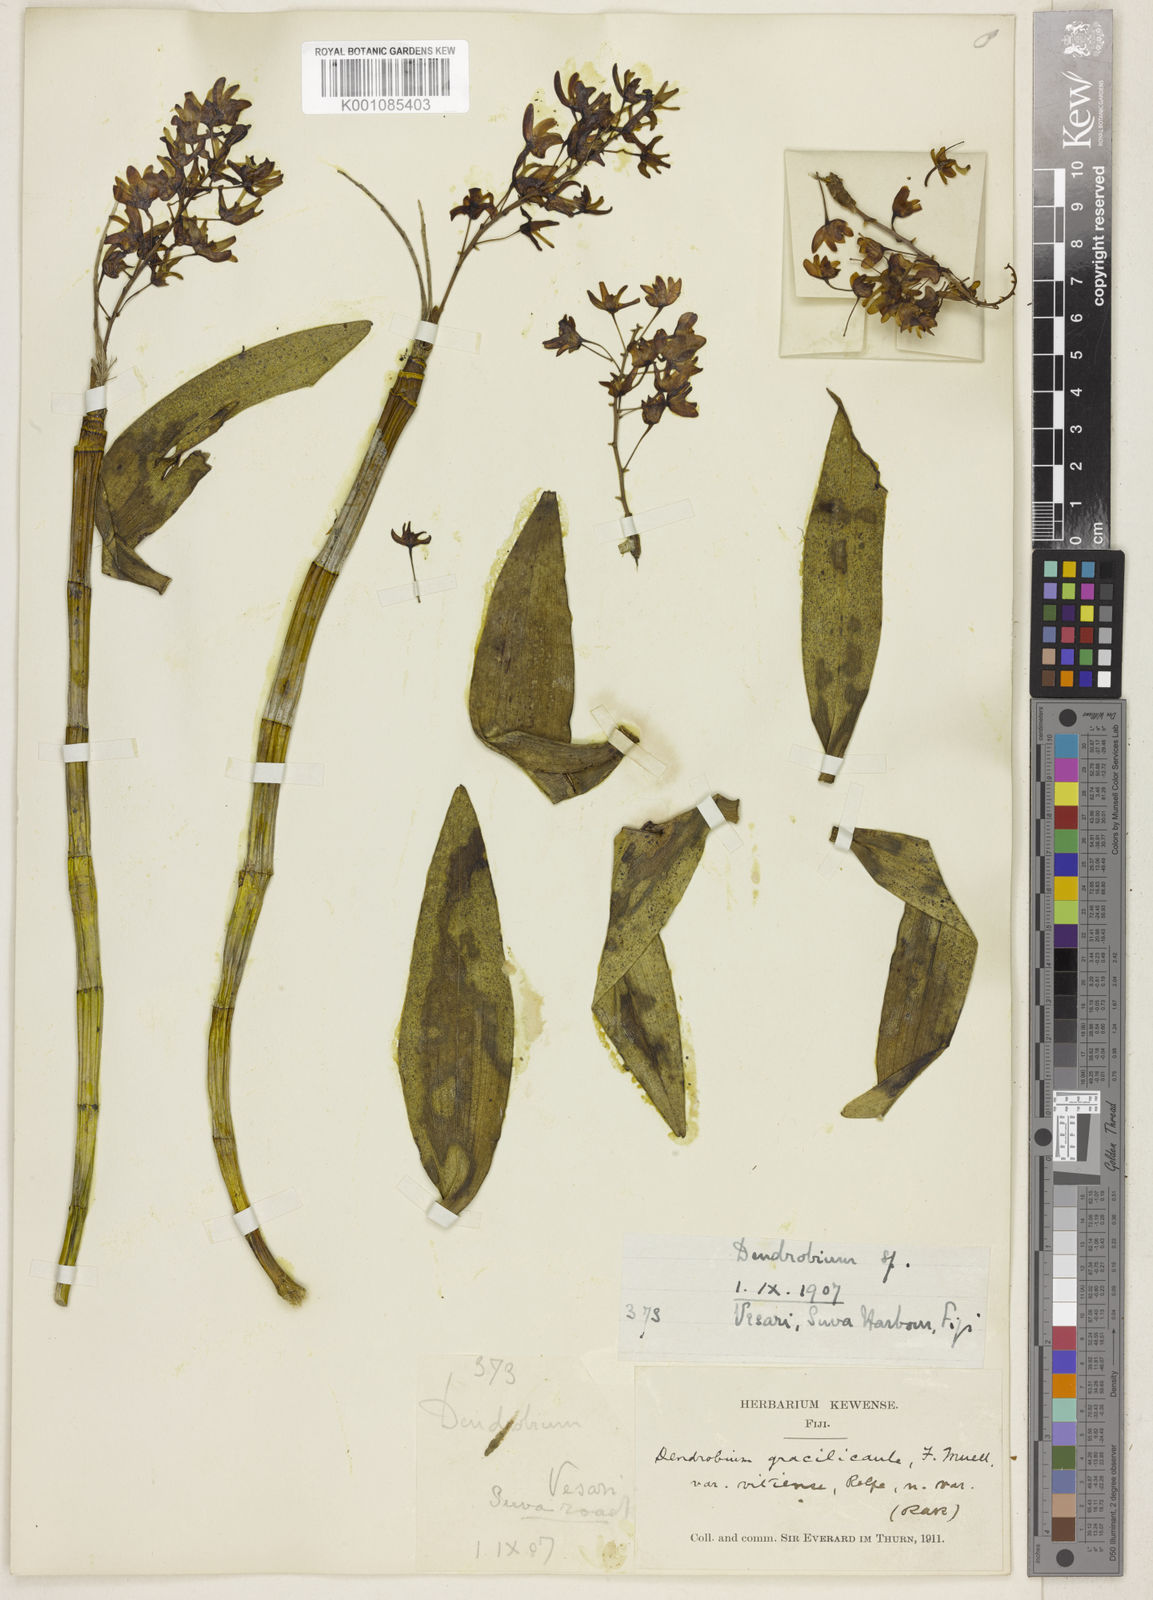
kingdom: Plantae
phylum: Tracheophyta
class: Liliopsida
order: Asparagales
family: Orchidaceae
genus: Dendrobium
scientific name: Dendrobium macropus
